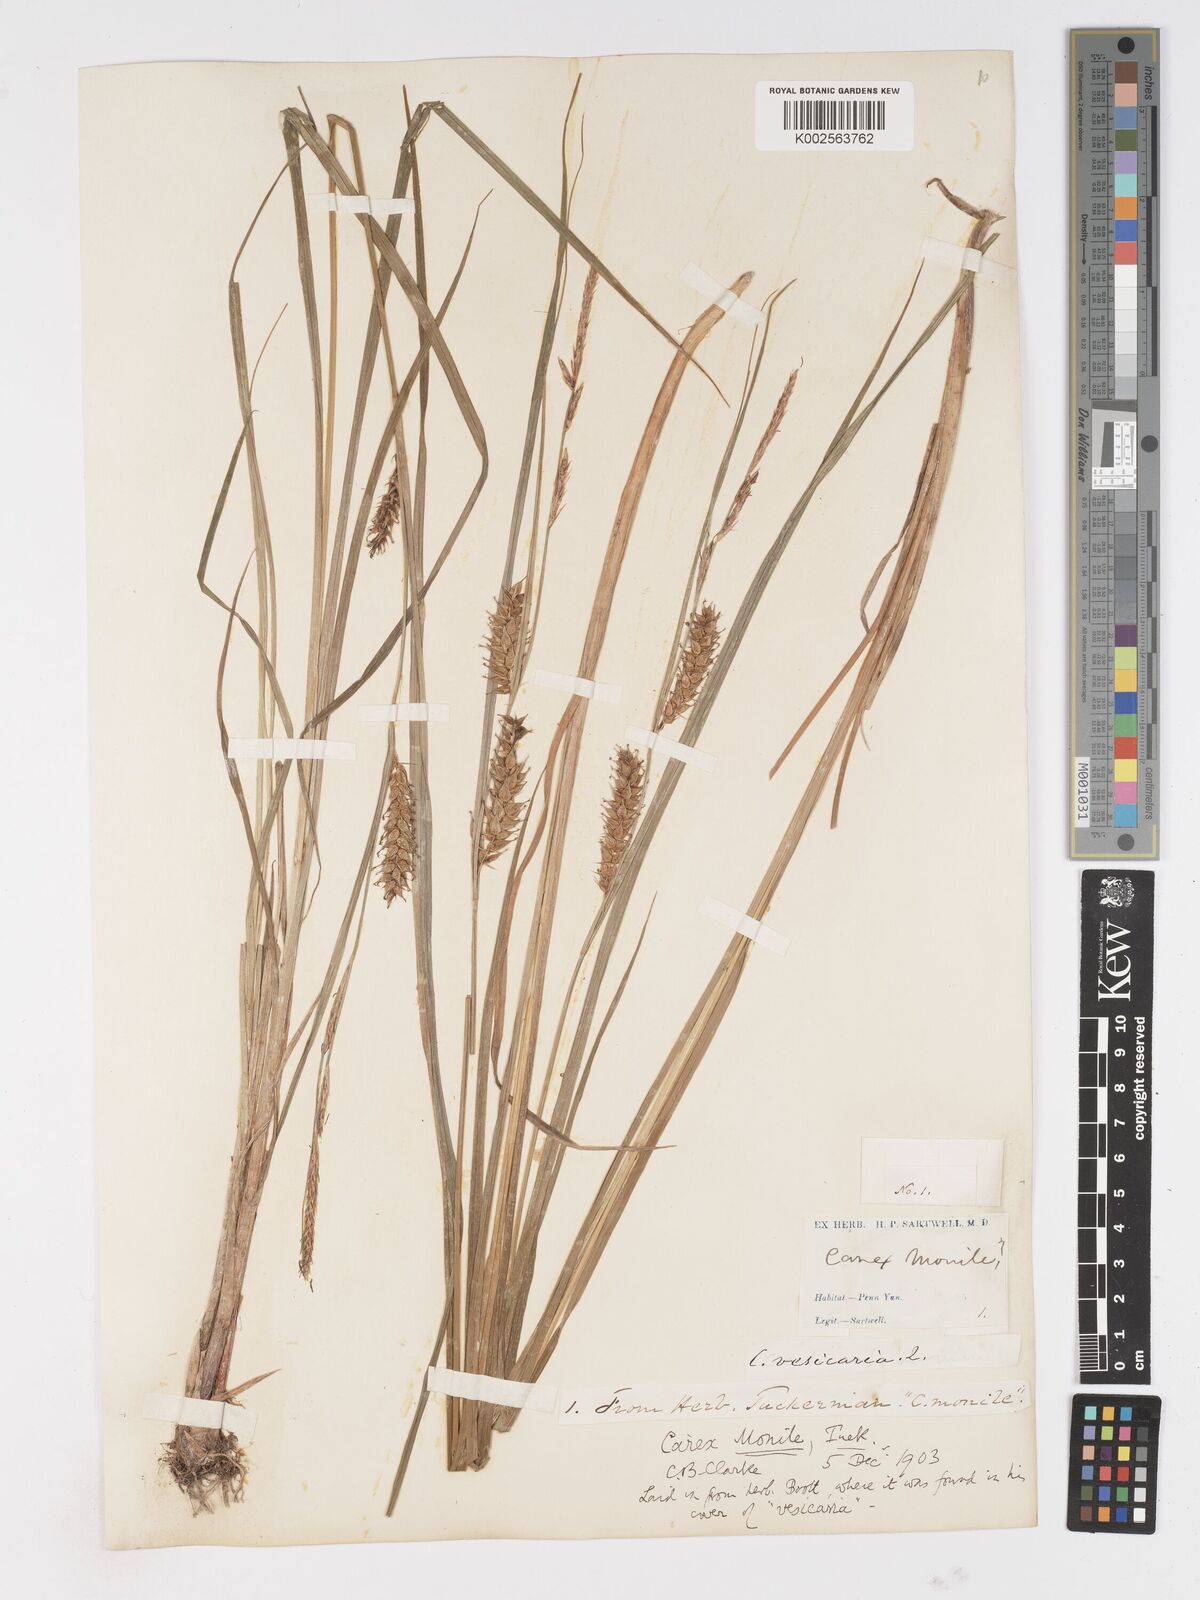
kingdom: Plantae
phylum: Tracheophyta
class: Liliopsida
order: Poales
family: Cyperaceae
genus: Carex
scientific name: Carex vesicaria
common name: Bladder-sedge
